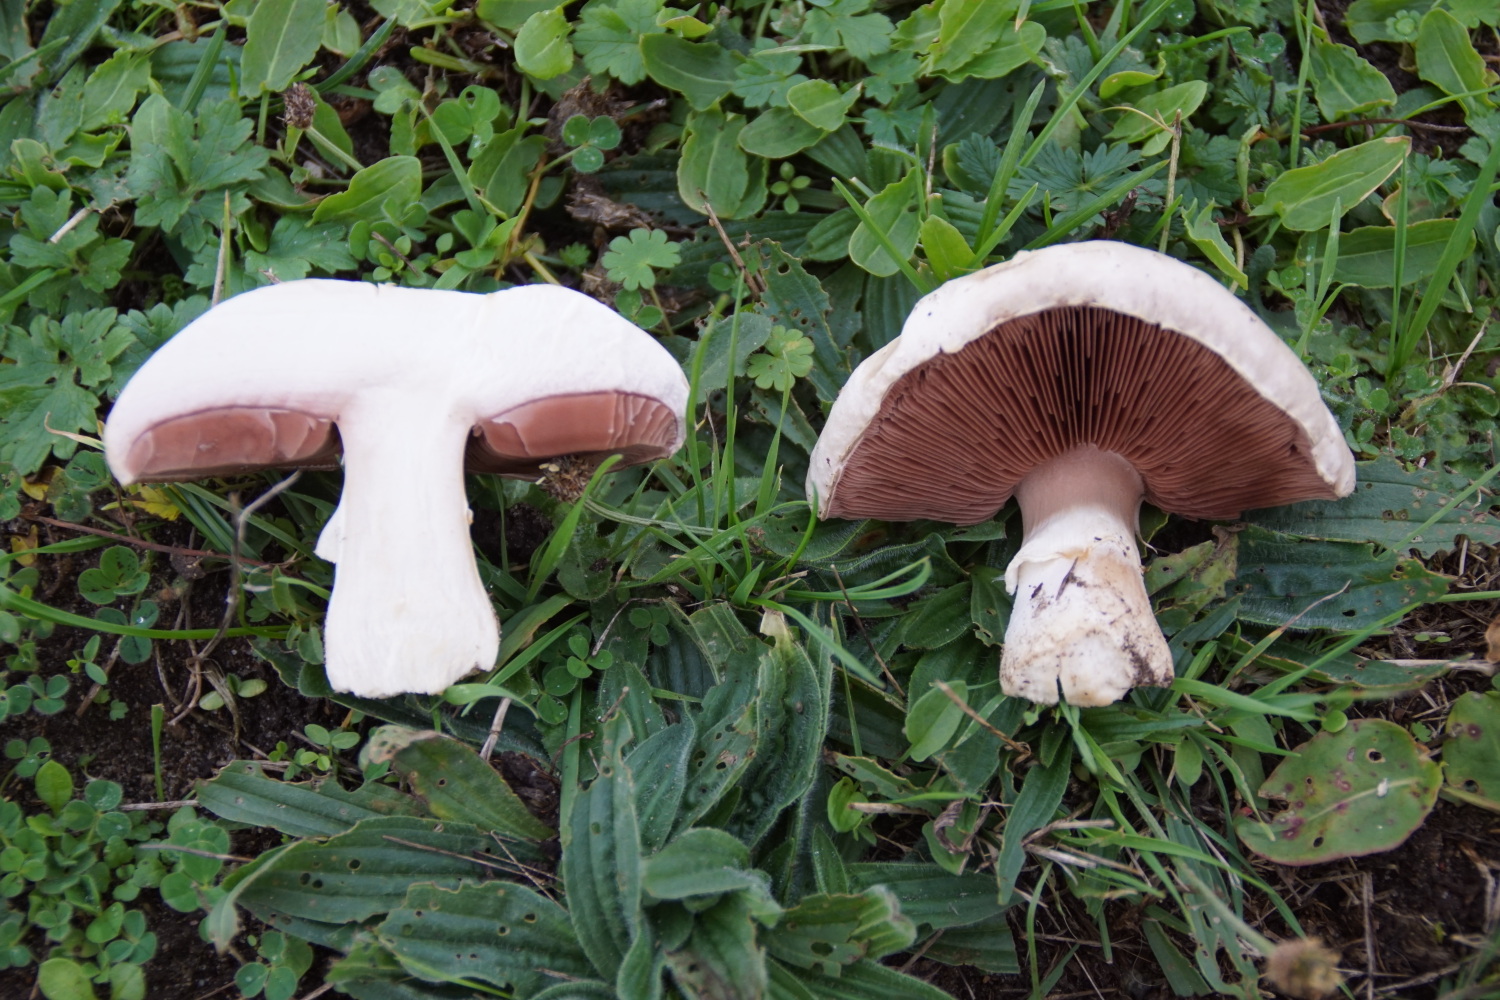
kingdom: Fungi
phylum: Basidiomycota
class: Agaricomycetes
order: Agaricales
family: Agaricaceae
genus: Agaricus
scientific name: Agaricus
